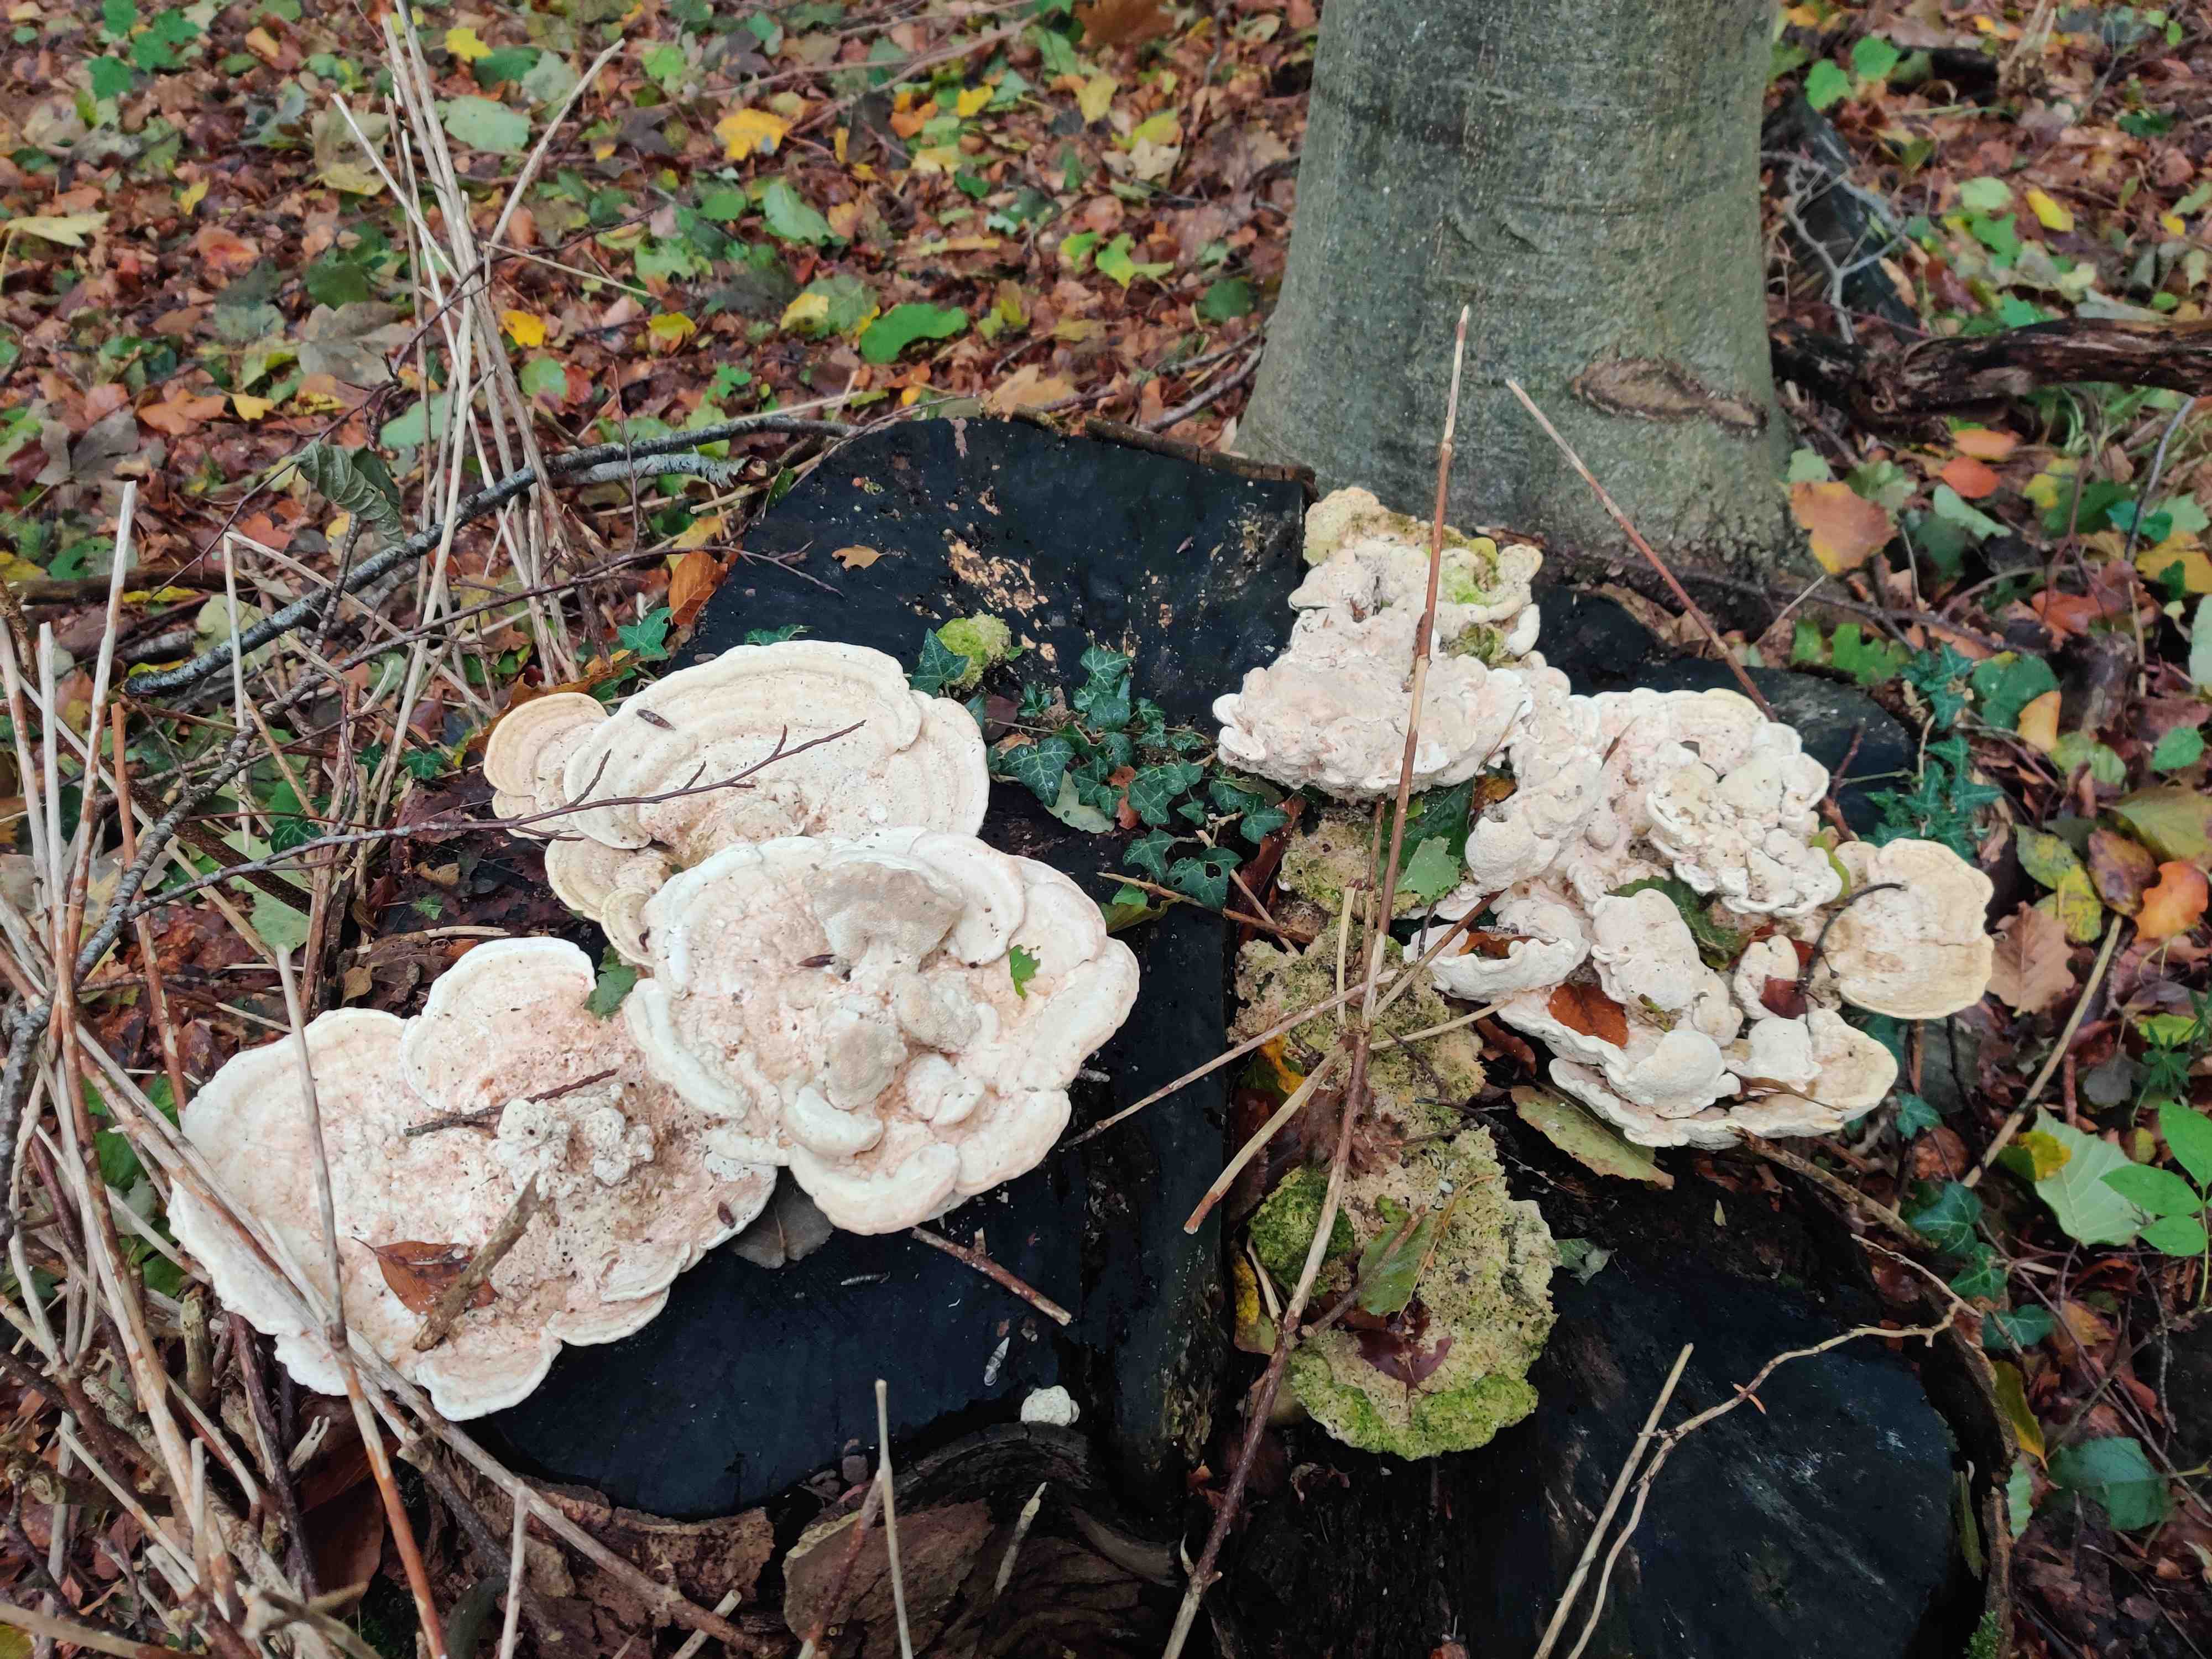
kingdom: Fungi
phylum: Basidiomycota
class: Agaricomycetes
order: Polyporales
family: Polyporaceae
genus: Trametes
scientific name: Trametes gibbosa
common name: puklet læderporesvamp
